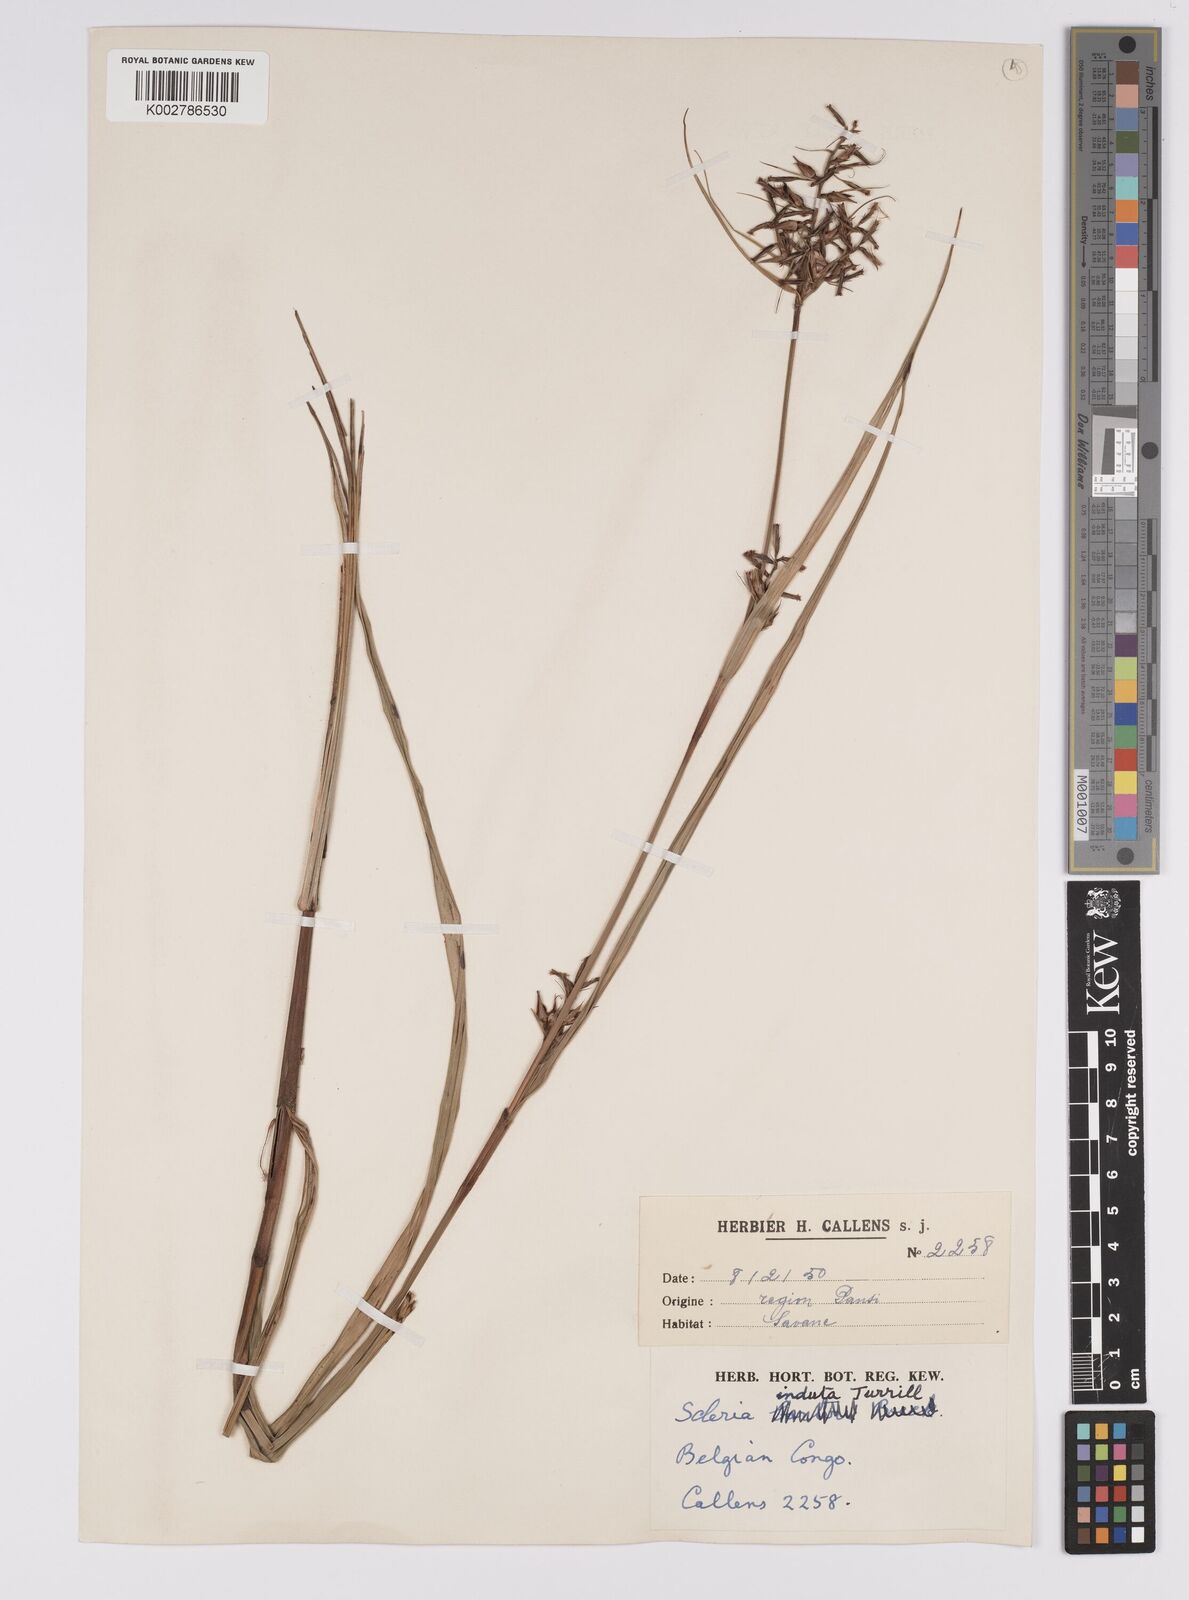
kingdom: Plantae
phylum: Tracheophyta
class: Liliopsida
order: Poales
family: Cyperaceae
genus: Scleria
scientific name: Scleria induta
